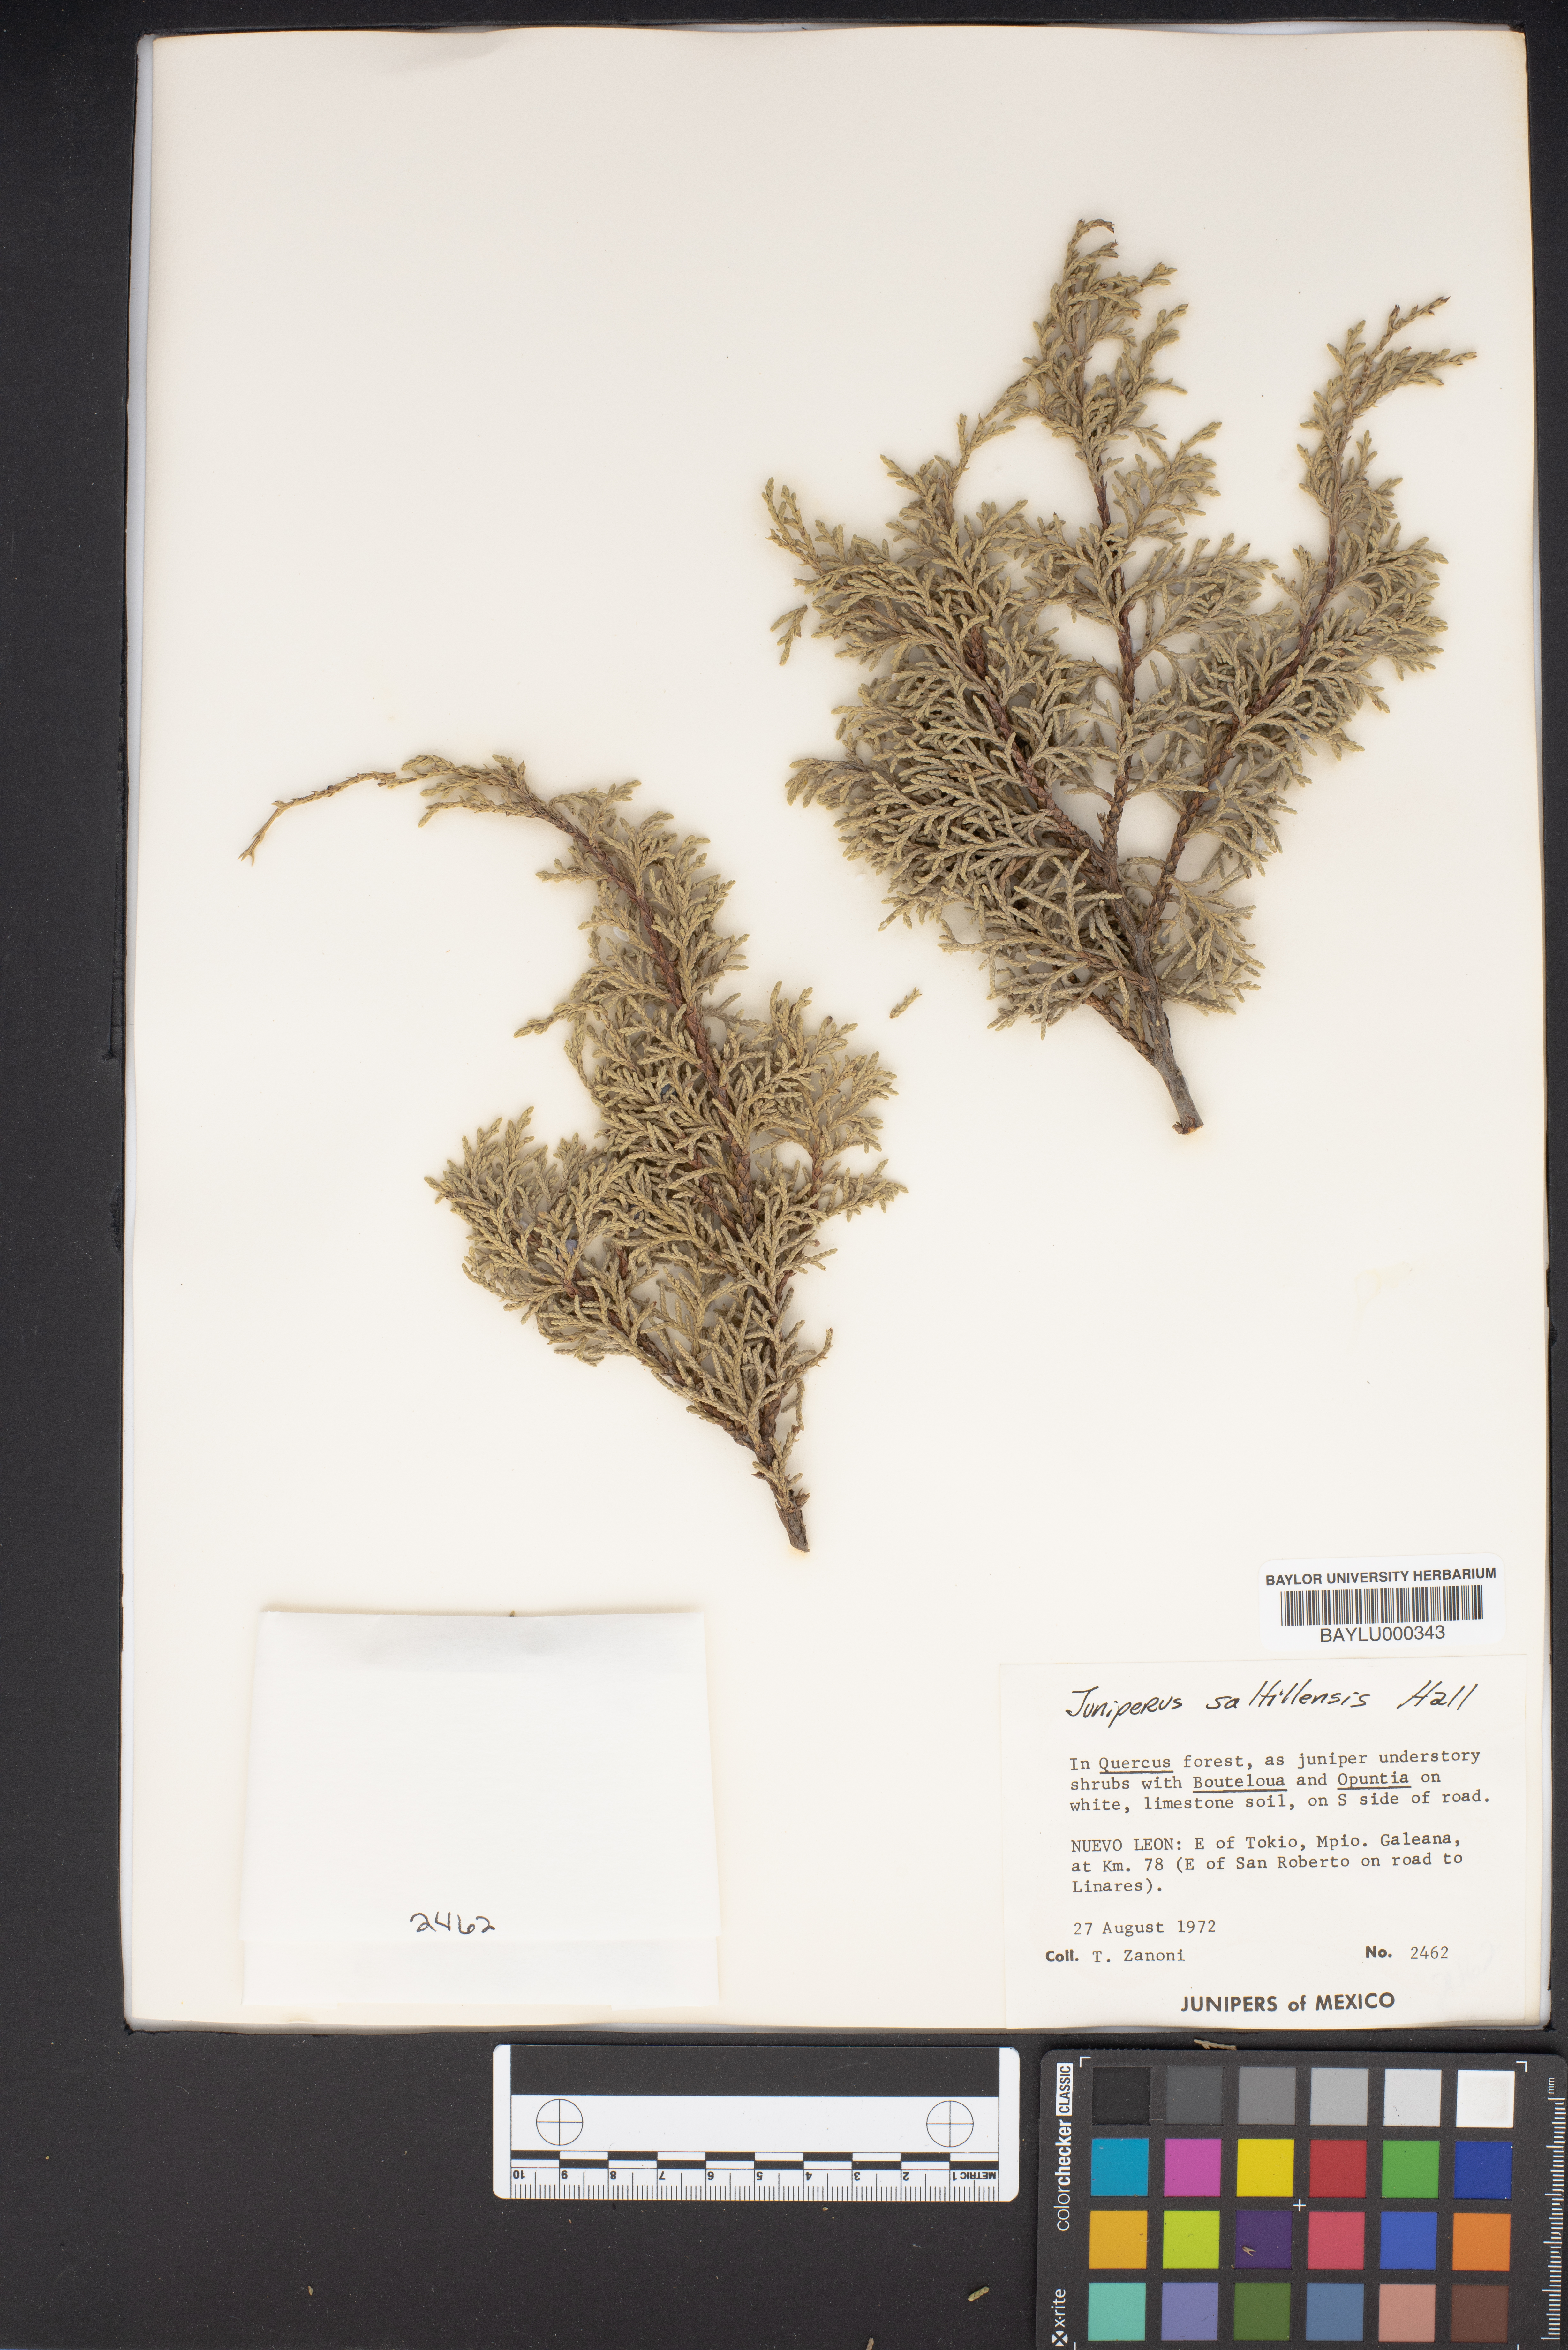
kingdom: Plantae
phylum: Tracheophyta
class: Pinopsida
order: Pinales
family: Cupressaceae
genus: Juniperus
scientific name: Juniperus saltillensis
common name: Saltillo juniper
